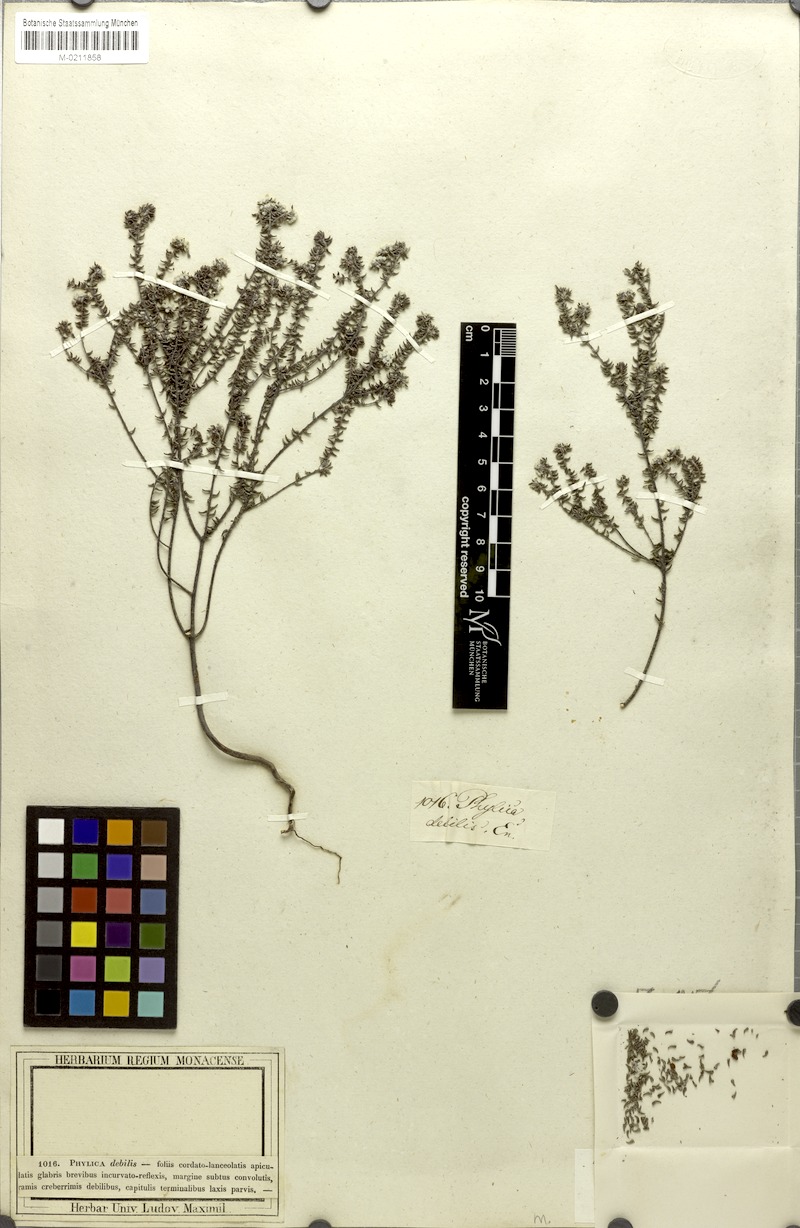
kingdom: Plantae
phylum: Tracheophyta
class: Magnoliopsida
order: Rosales
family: Rhamnaceae
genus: Phylica
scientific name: Phylica debilis
